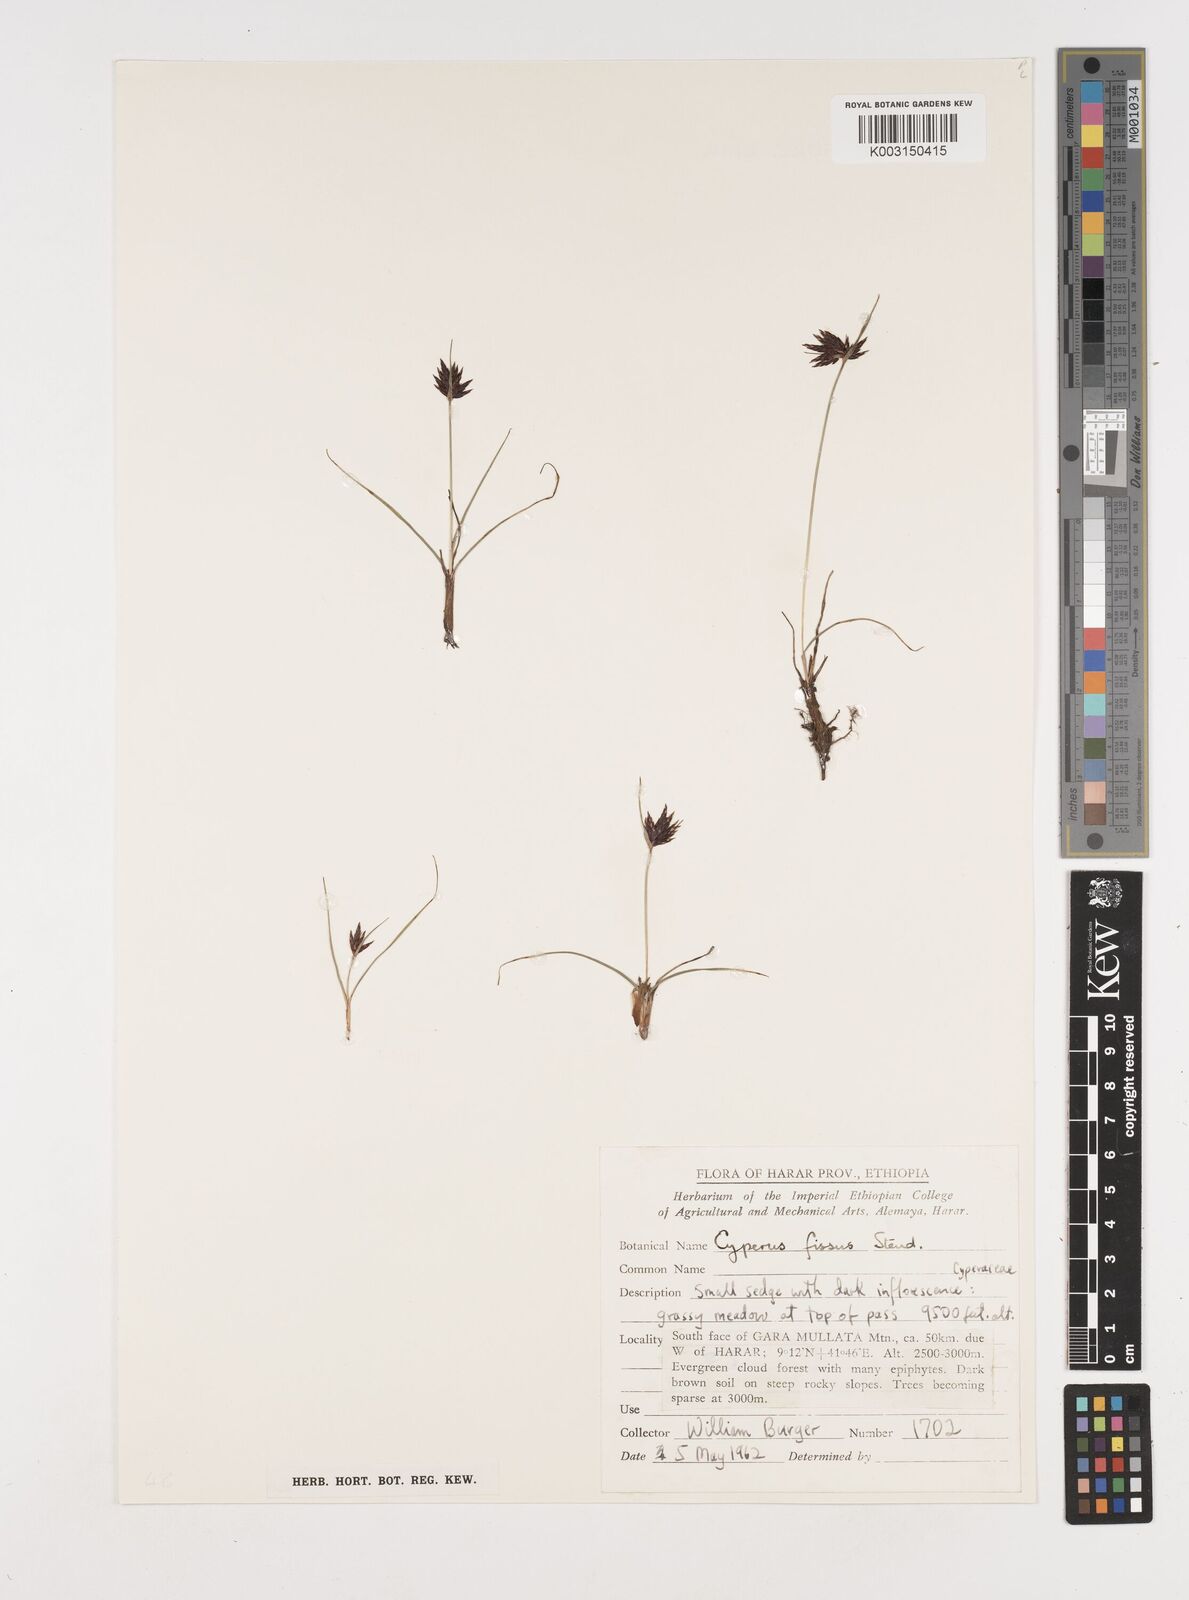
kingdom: Plantae
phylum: Tracheophyta
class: Liliopsida
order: Poales
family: Cyperaceae
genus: Cyperus
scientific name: Cyperus fissus
